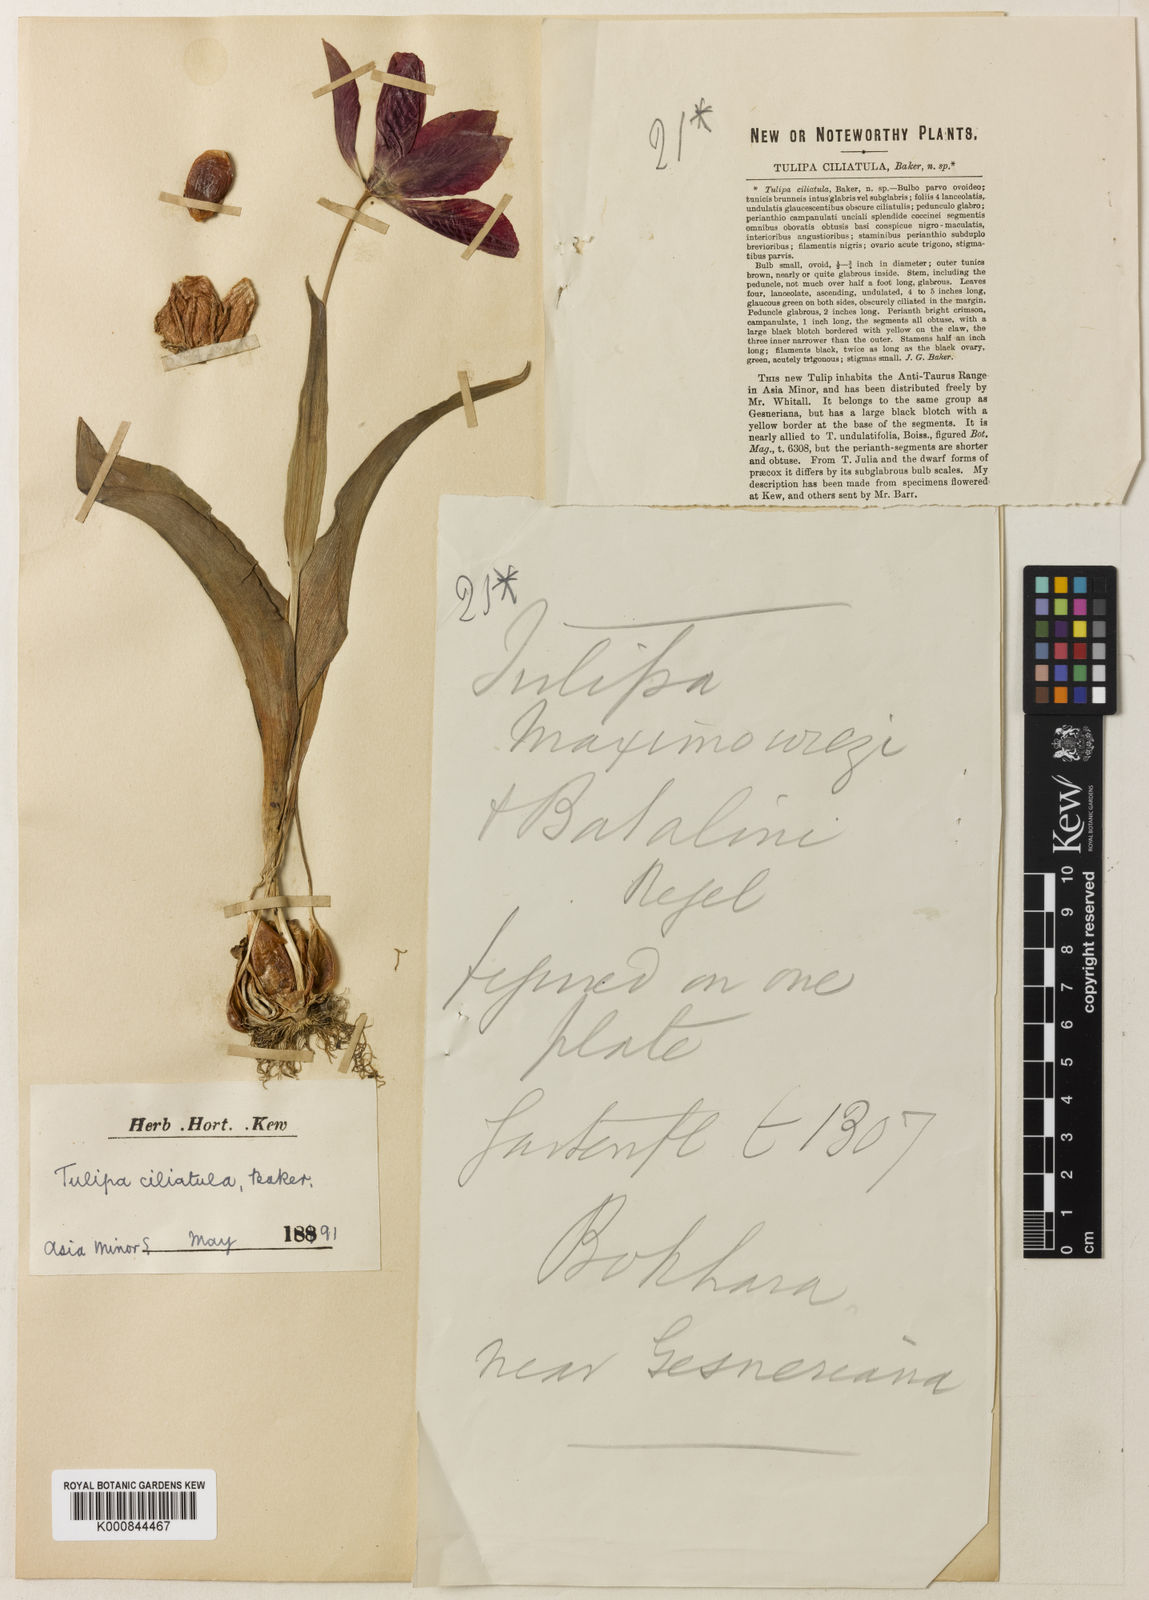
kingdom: Plantae
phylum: Tracheophyta
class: Liliopsida
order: Liliales
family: Liliaceae
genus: Tulipa
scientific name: Tulipa foliosa
